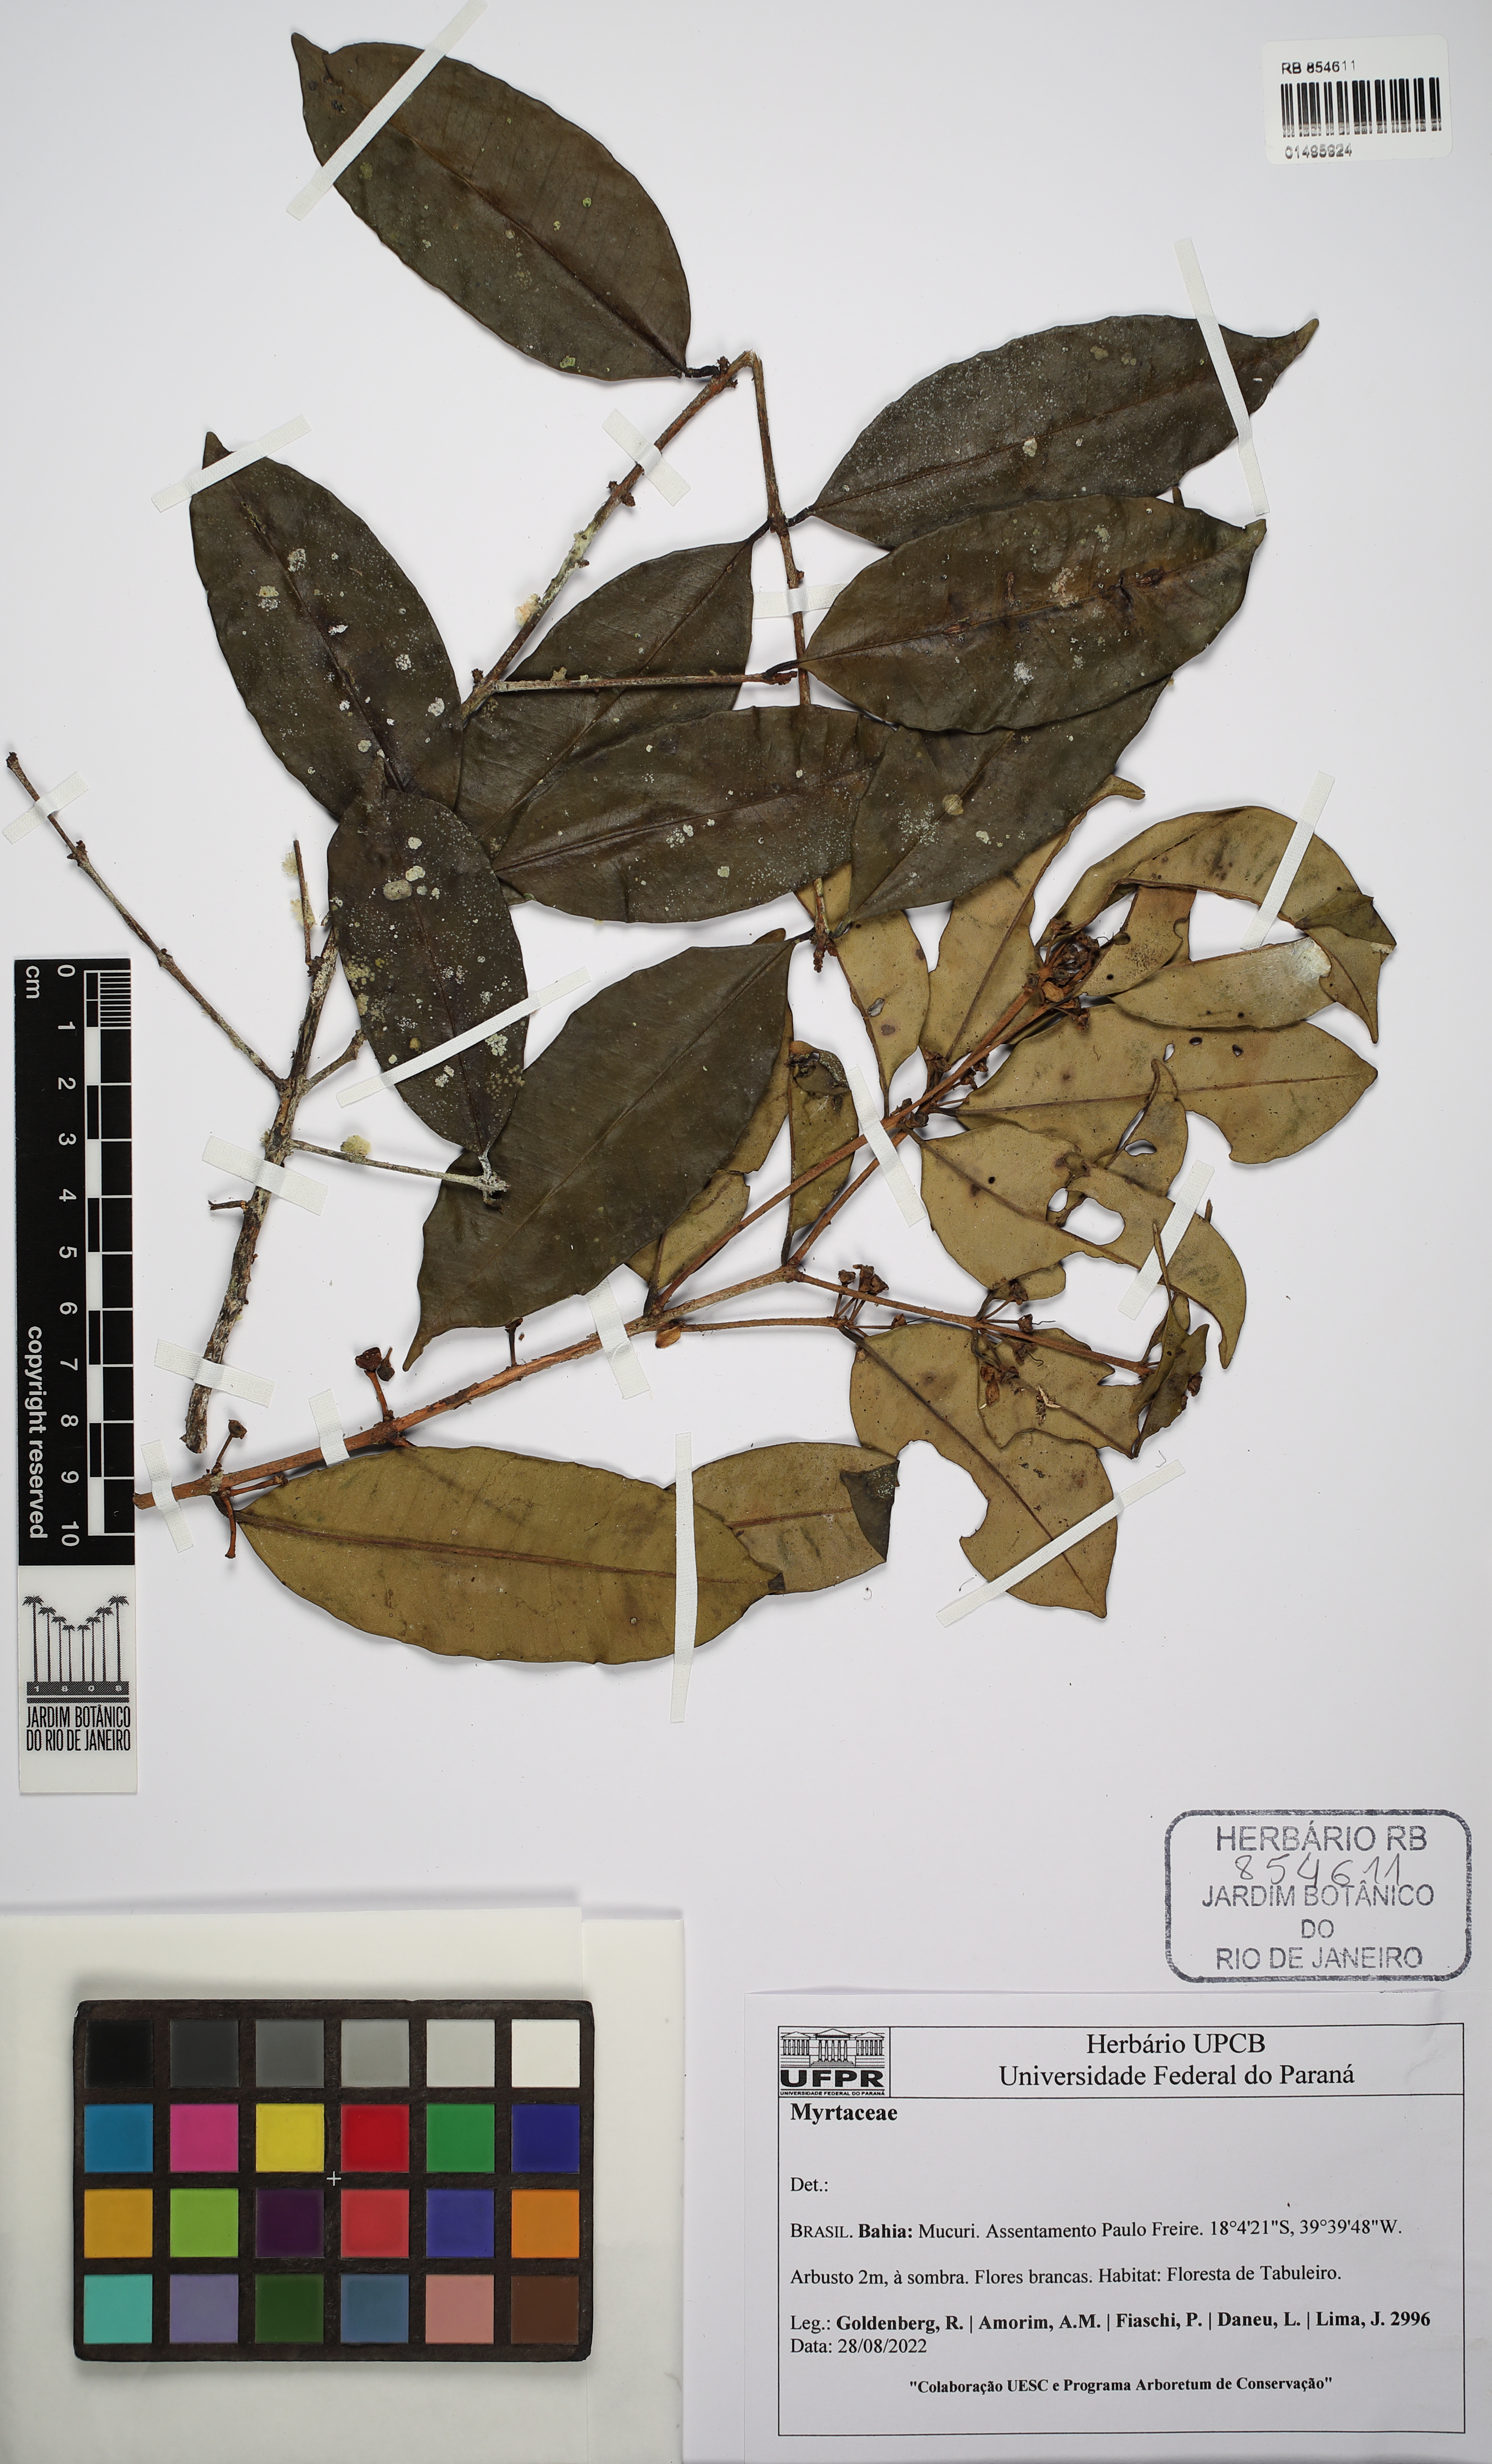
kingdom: Plantae
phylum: Tracheophyta
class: Magnoliopsida
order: Myrtales
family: Myrtaceae
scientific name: Myrtaceae
